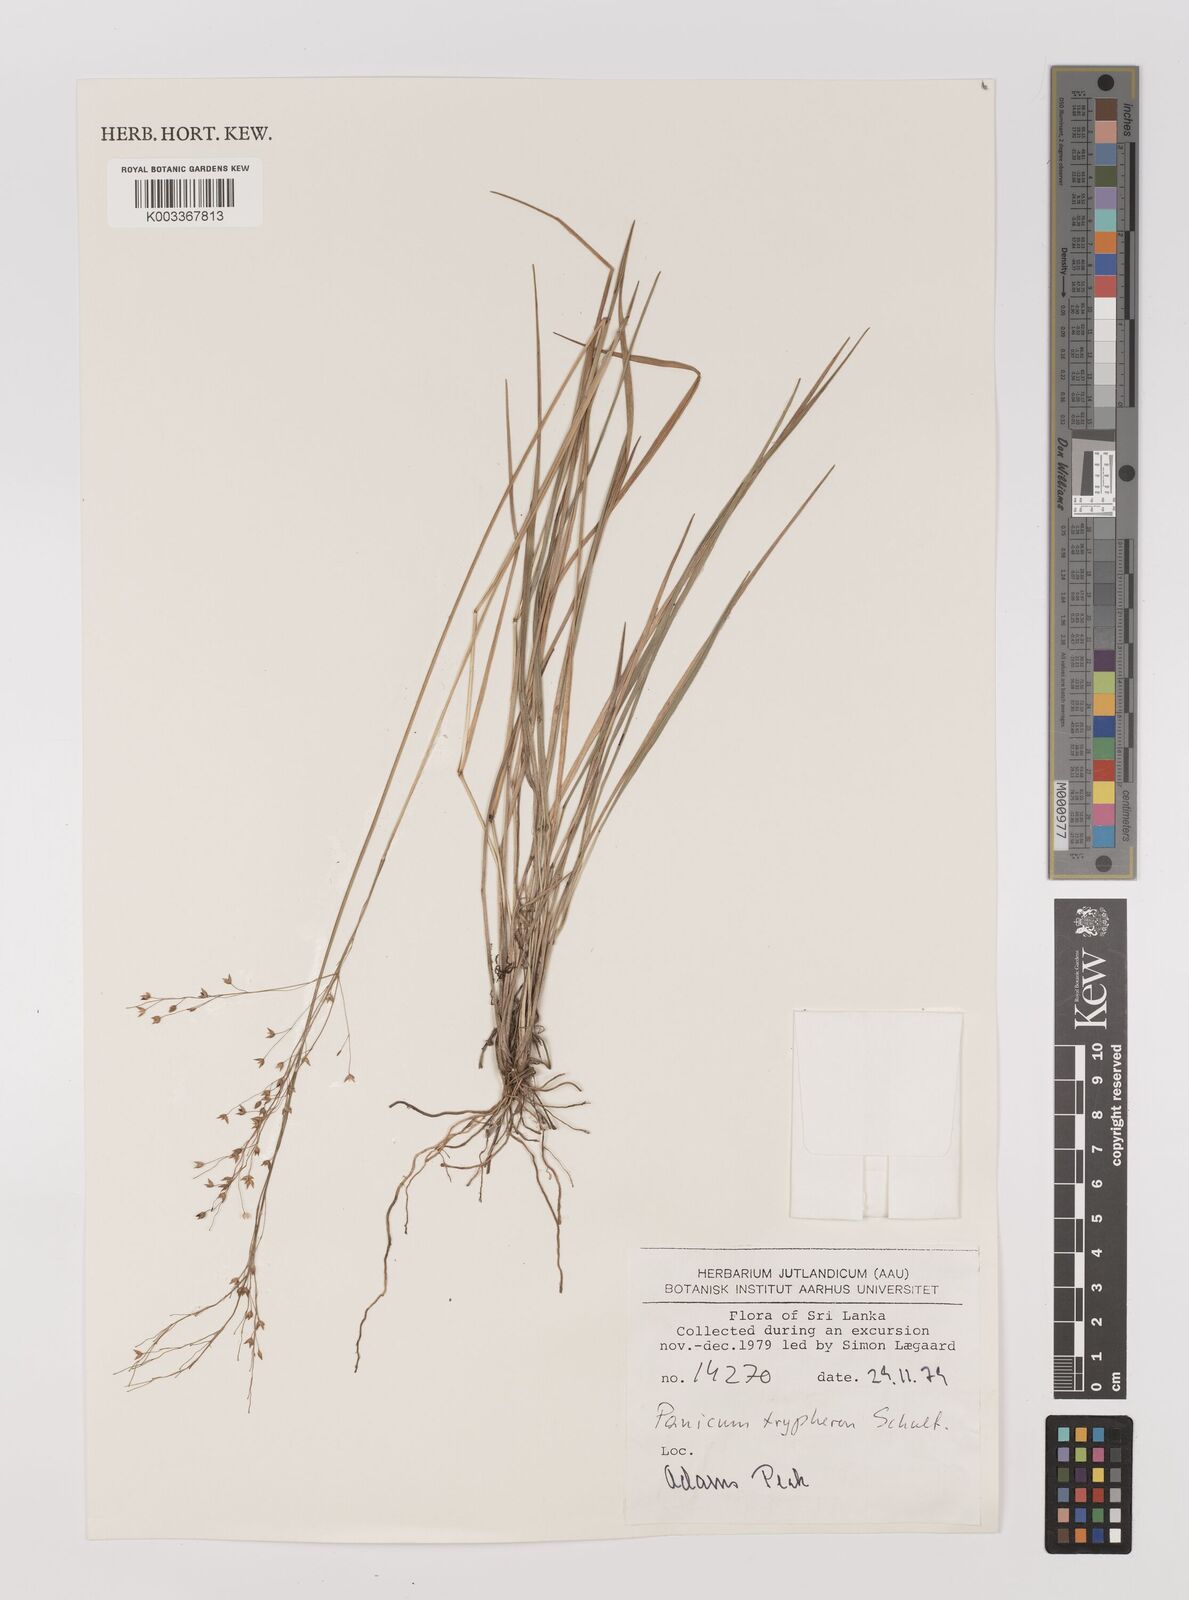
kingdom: Plantae
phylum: Tracheophyta
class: Liliopsida
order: Poales
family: Poaceae
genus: Panicum
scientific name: Panicum curviflorum
